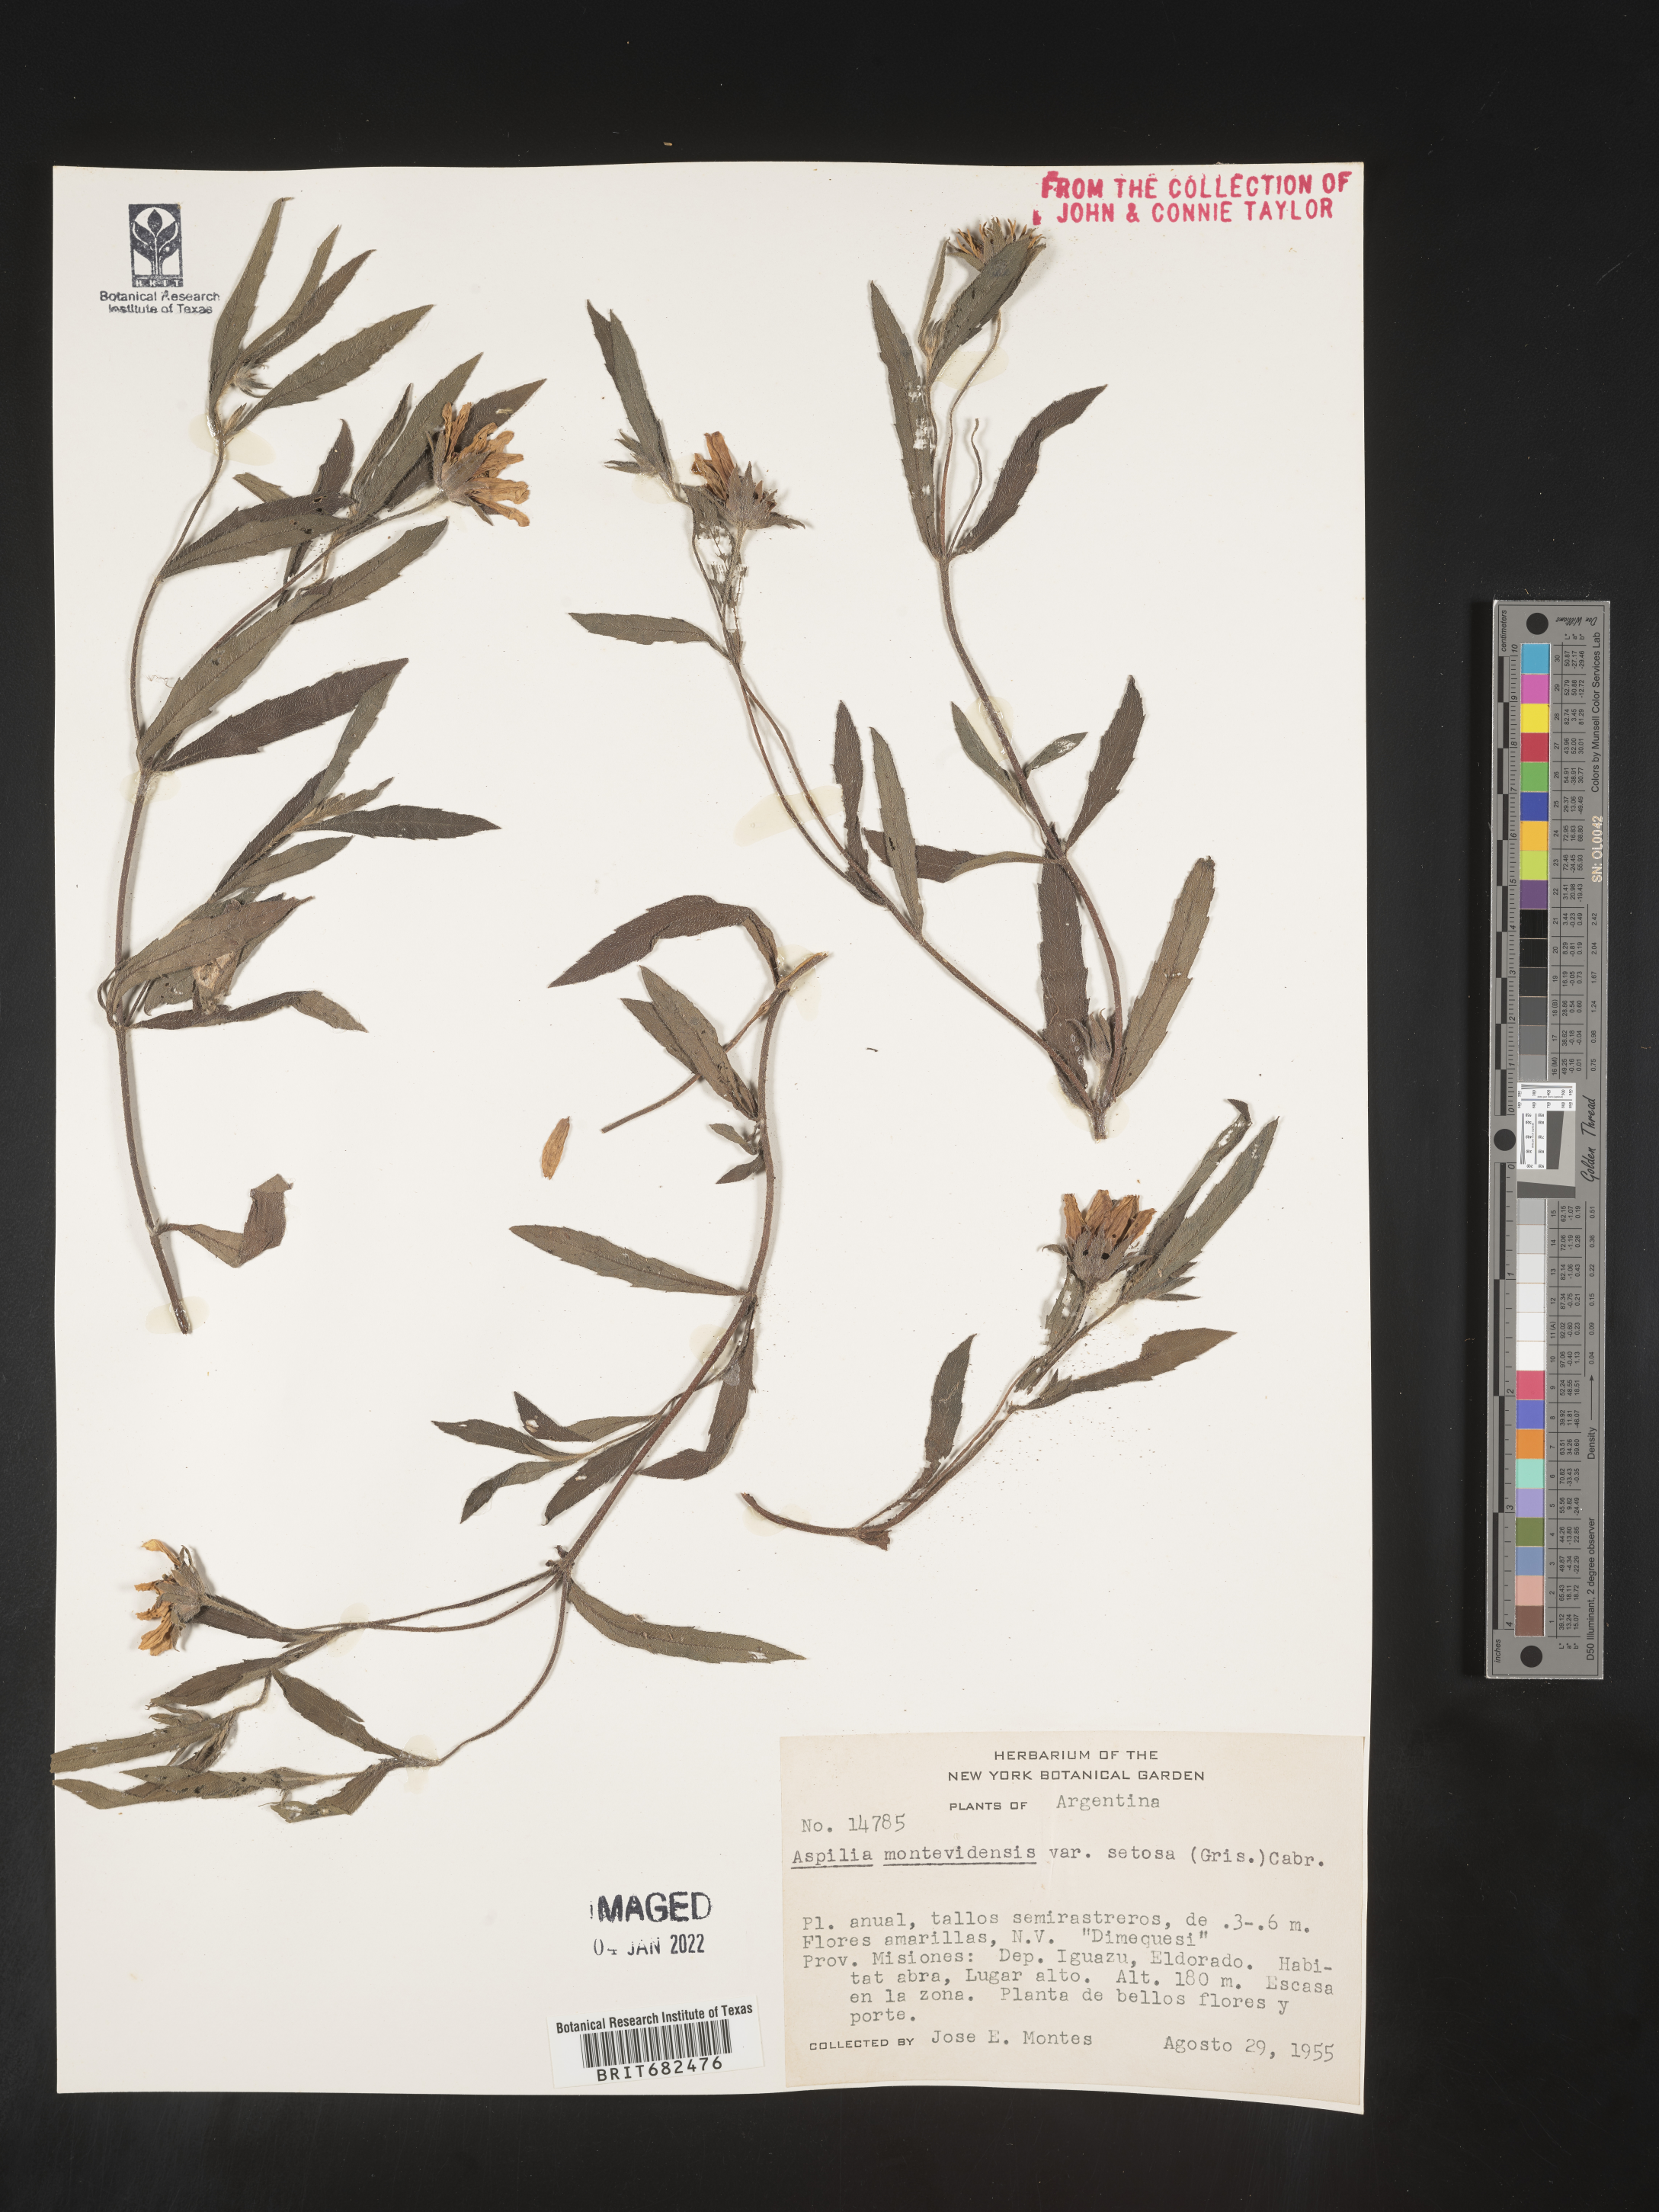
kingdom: Plantae
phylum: Tracheophyta
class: Magnoliopsida
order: Asterales
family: Asteraceae
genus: Aspilia
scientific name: Aspilia
